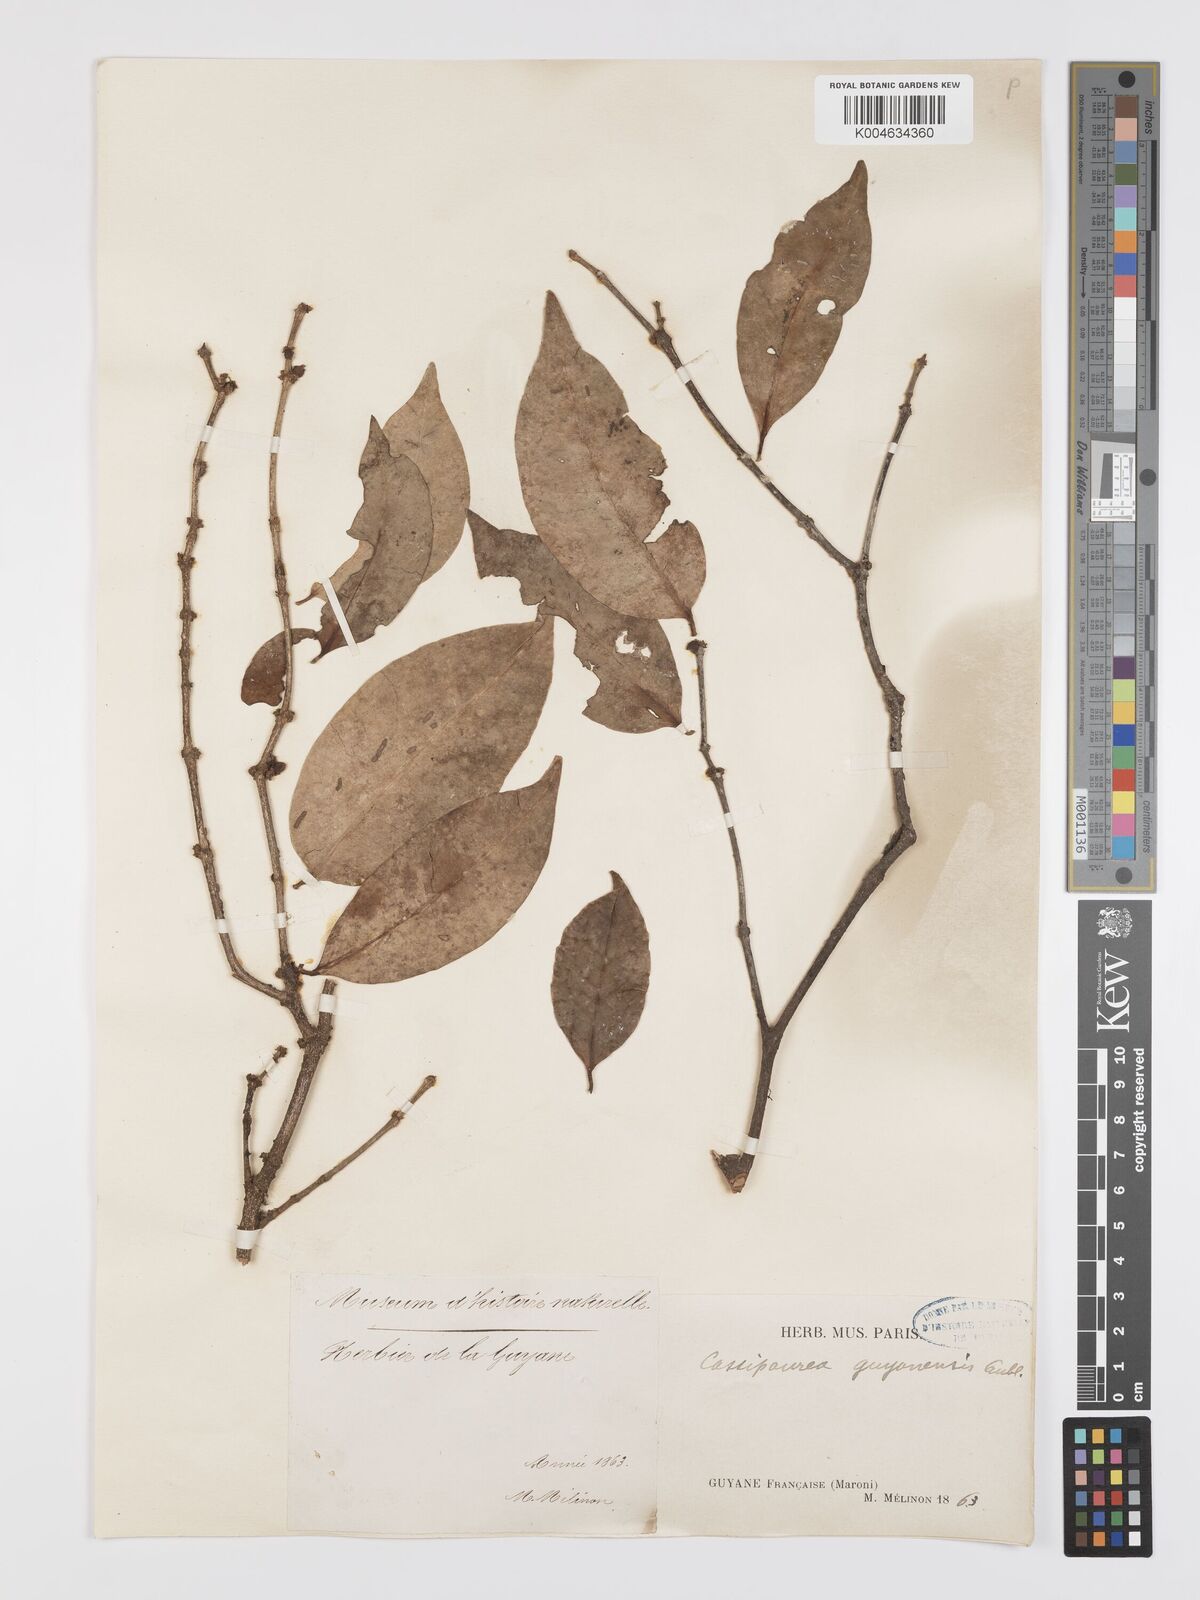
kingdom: Plantae
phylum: Tracheophyta
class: Magnoliopsida
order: Malpighiales
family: Rhizophoraceae
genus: Cassipourea
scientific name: Cassipourea guianensis
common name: Bastard waterwood
